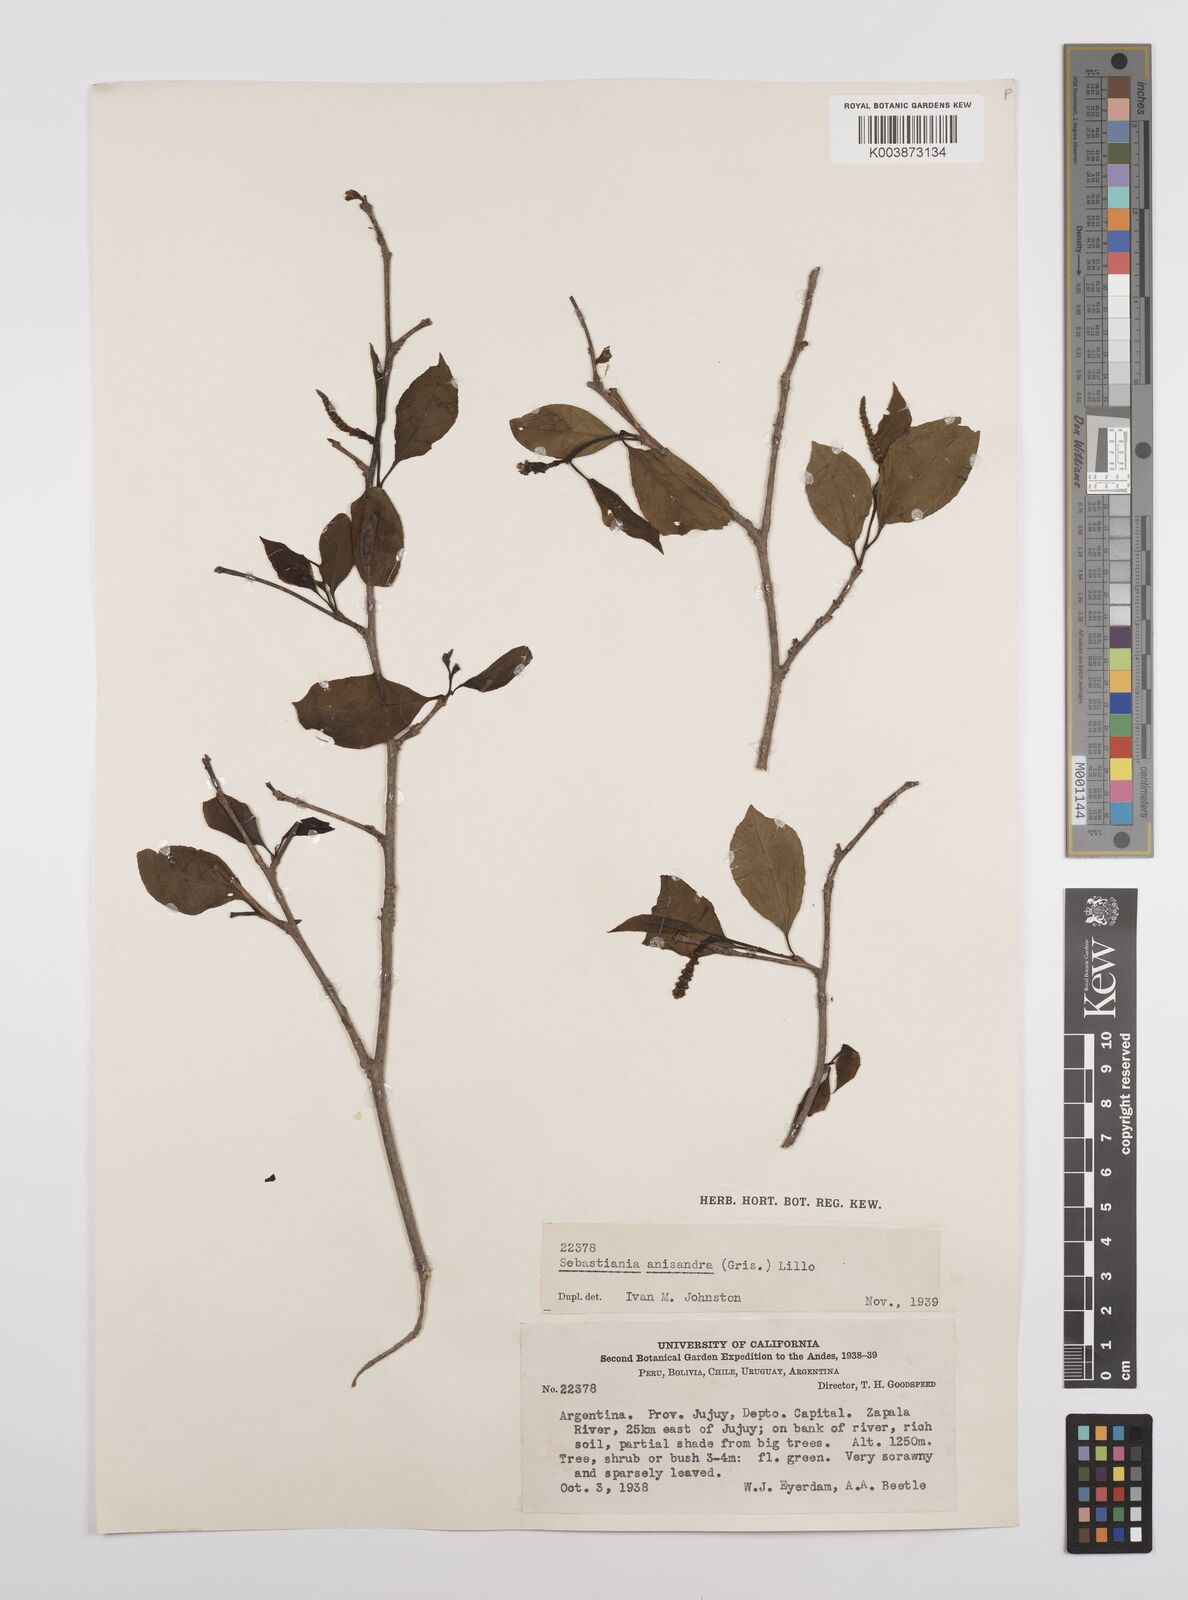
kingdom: Plantae
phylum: Tracheophyta
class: Magnoliopsida
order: Malpighiales
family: Euphorbiaceae
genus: Sebastiania
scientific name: Sebastiania brasiliensis
